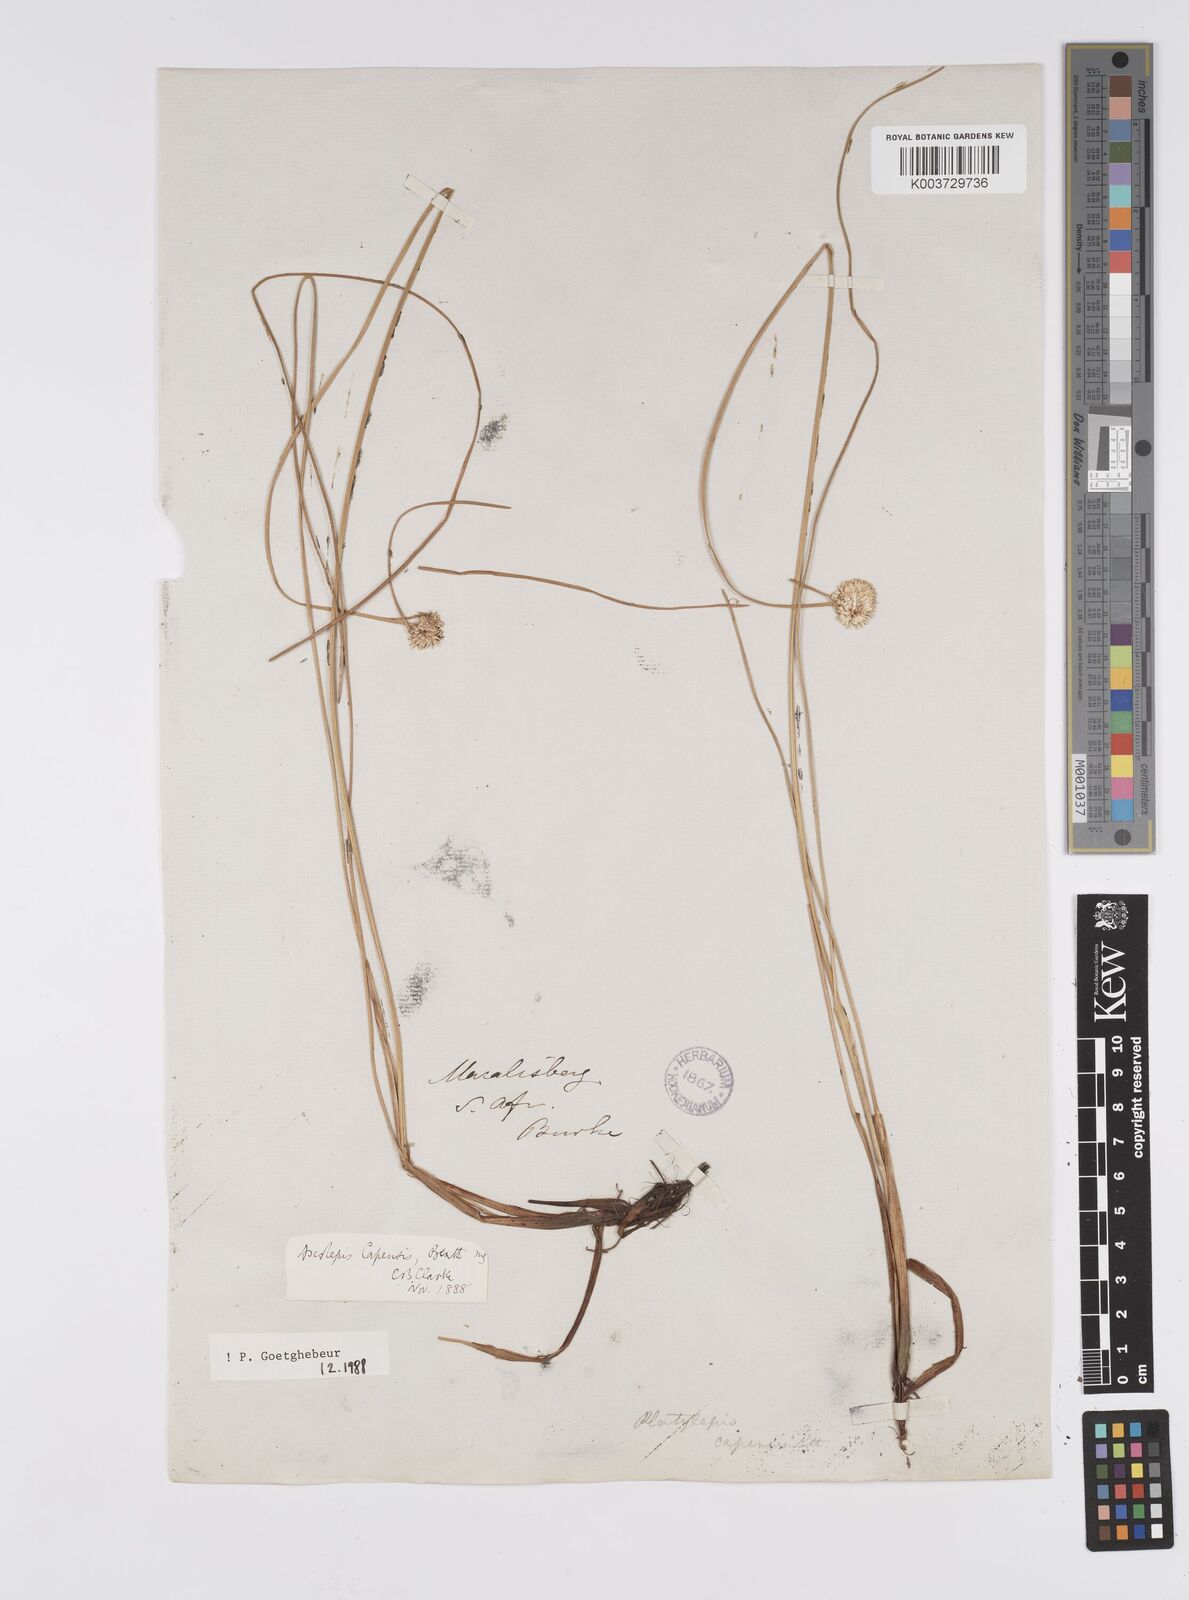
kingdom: Plantae
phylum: Tracheophyta
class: Liliopsida
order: Poales
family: Cyperaceae
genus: Cyperus
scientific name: Cyperus capensis
